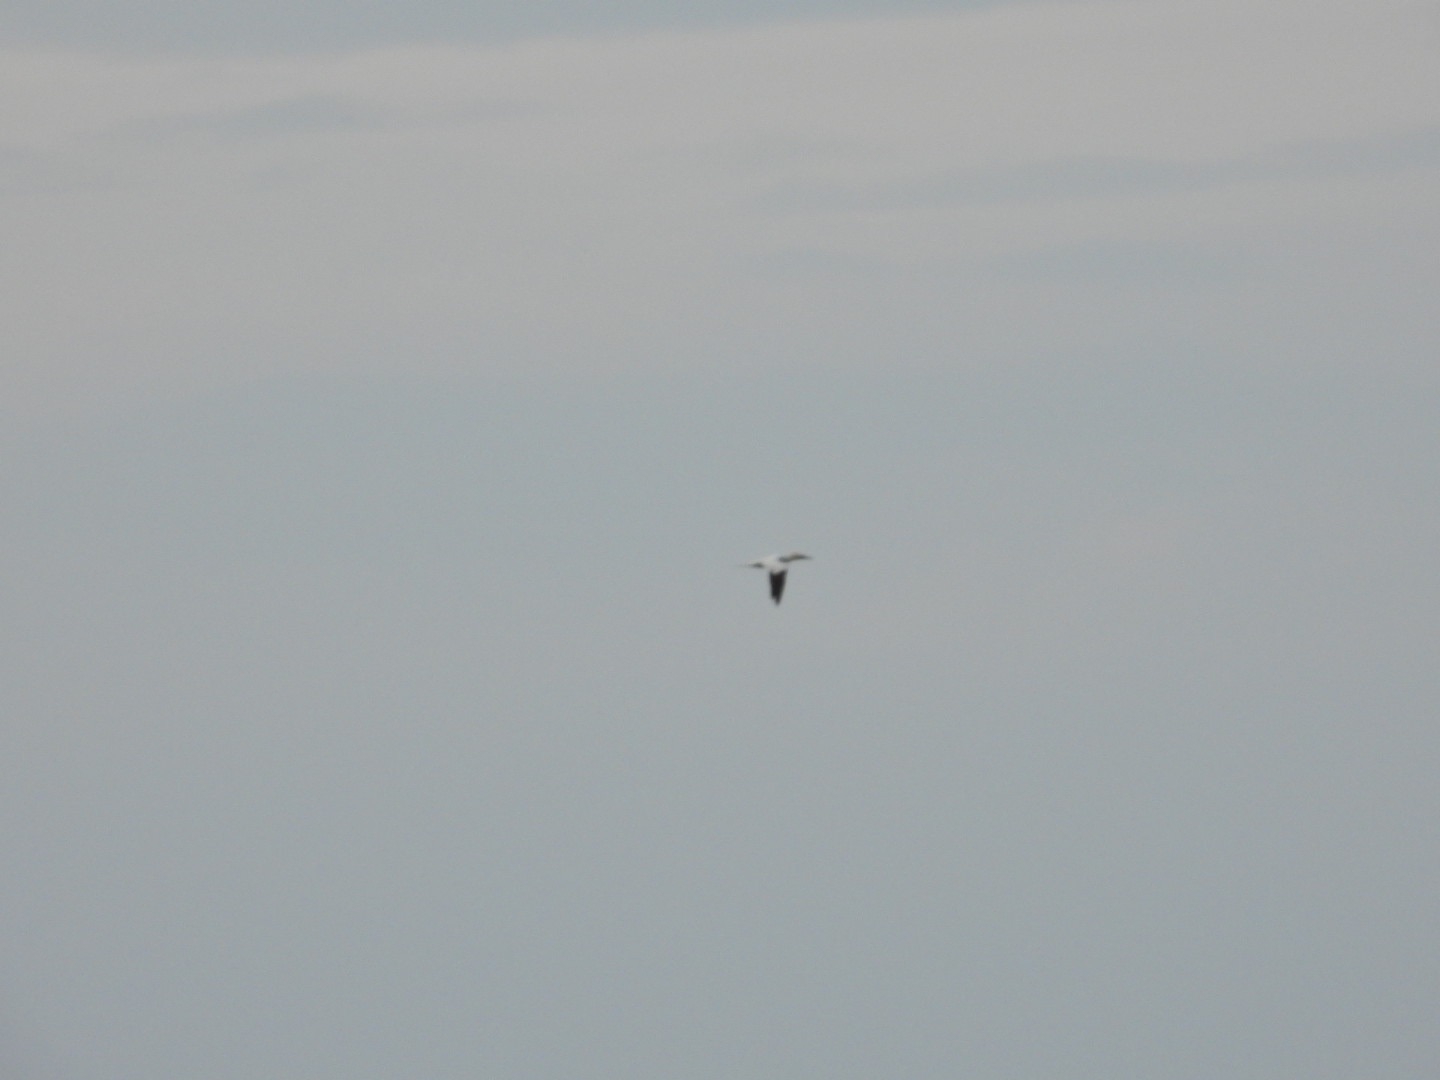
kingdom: Animalia
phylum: Chordata
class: Aves
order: Suliformes
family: Sulidae
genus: Morus
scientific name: Morus bassanus
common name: Sule
